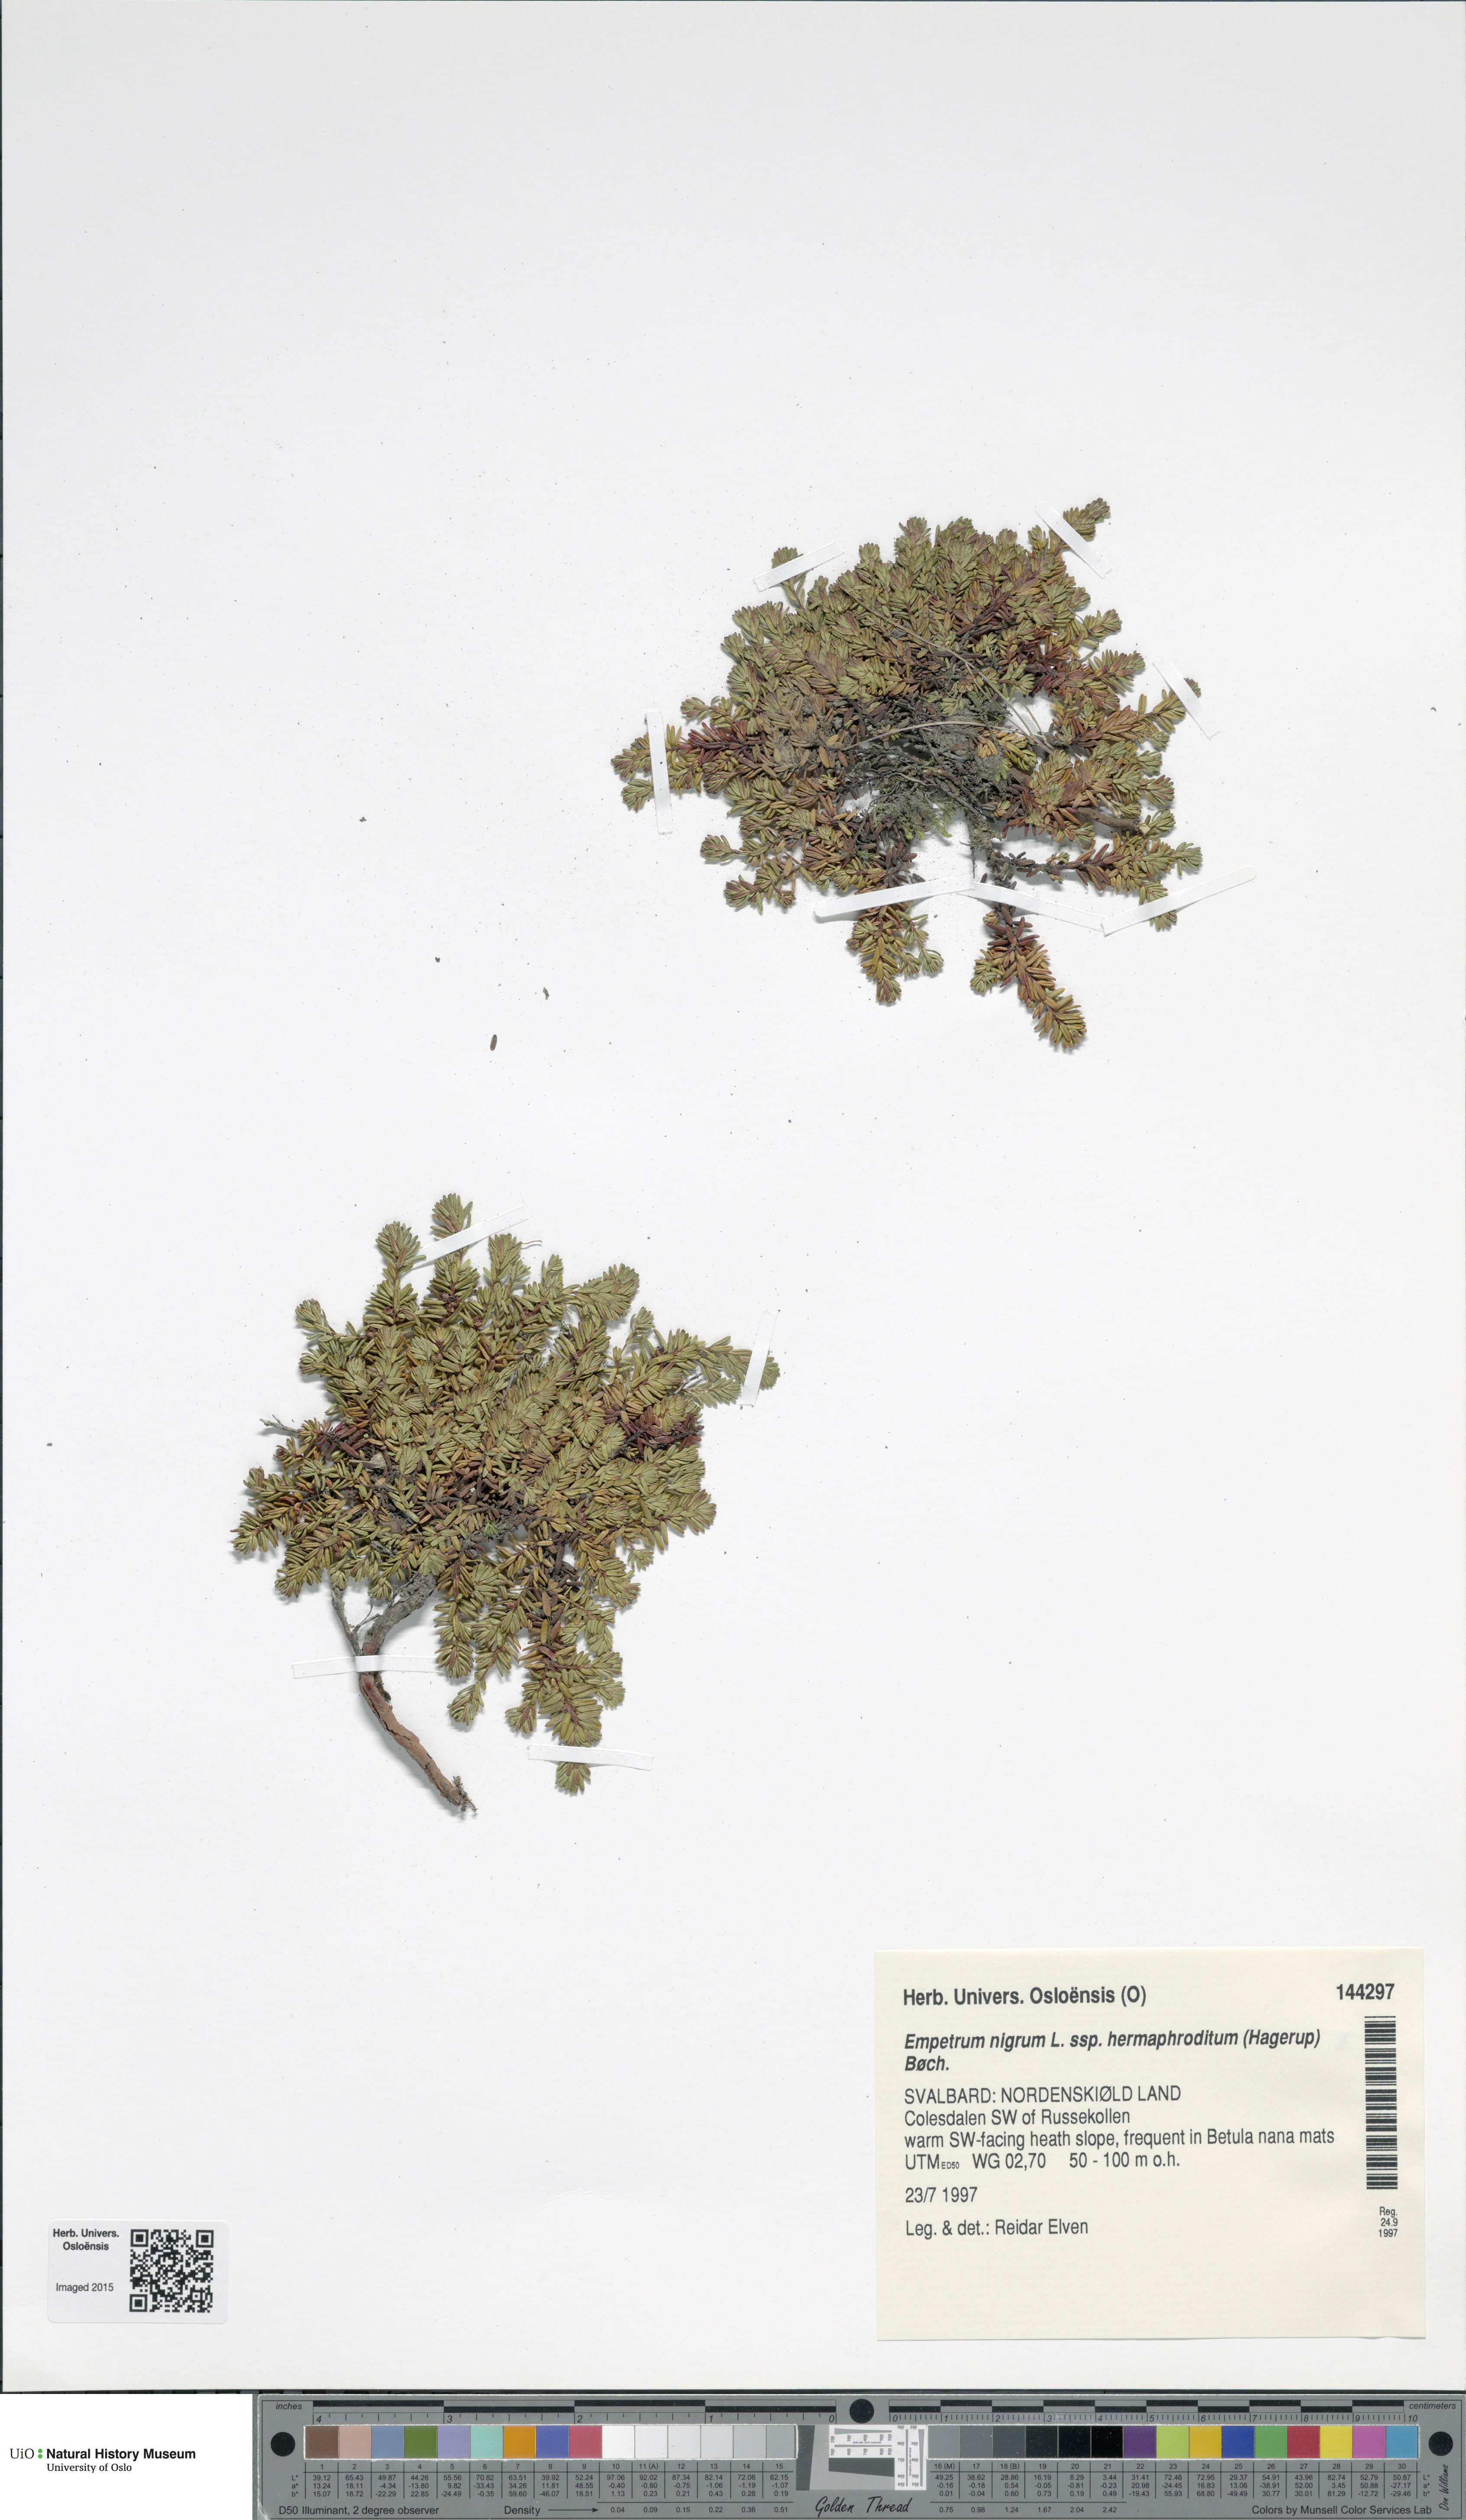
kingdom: Plantae
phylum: Tracheophyta
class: Magnoliopsida
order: Ericales
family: Ericaceae
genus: Empetrum
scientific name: Empetrum hermaphroditum
